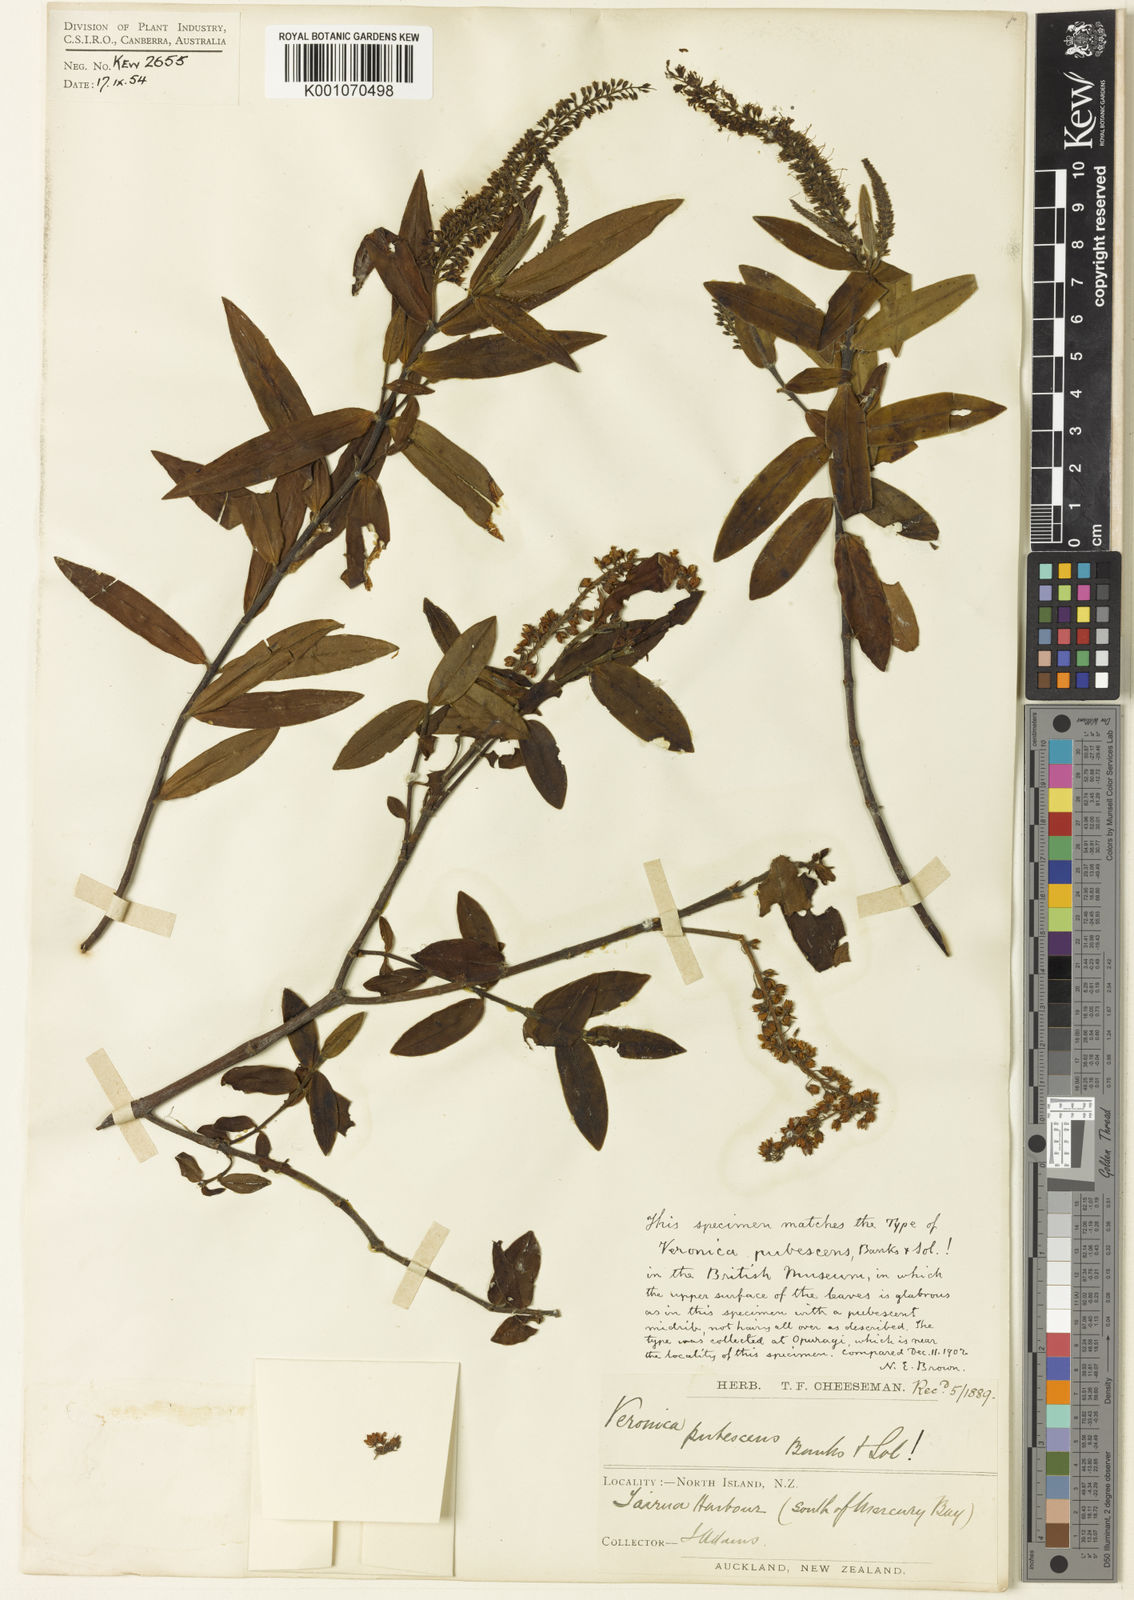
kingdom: Plantae
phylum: Tracheophyta
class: Magnoliopsida
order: Lamiales
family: Plantaginaceae
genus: Veronica
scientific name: Veronica pubescens
